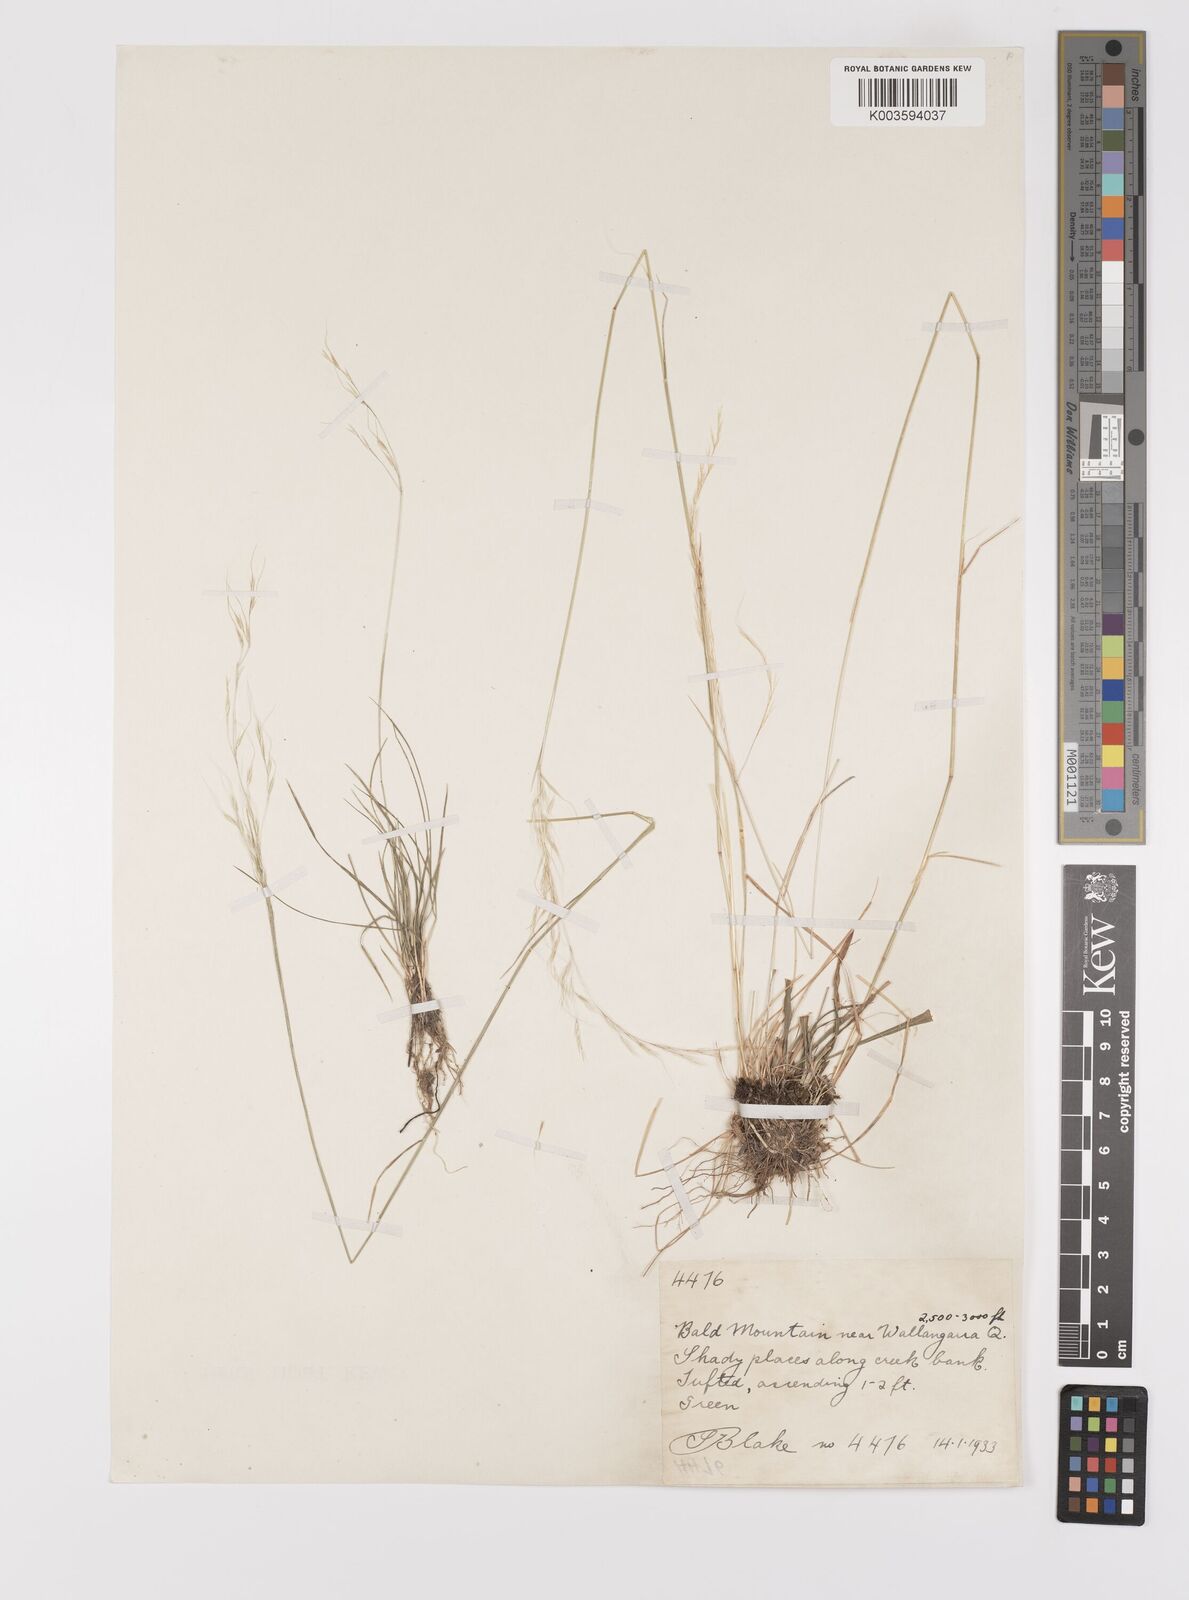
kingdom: Plantae
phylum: Tracheophyta
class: Liliopsida
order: Poales
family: Poaceae
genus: Dichelachne
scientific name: Dichelachne rara
